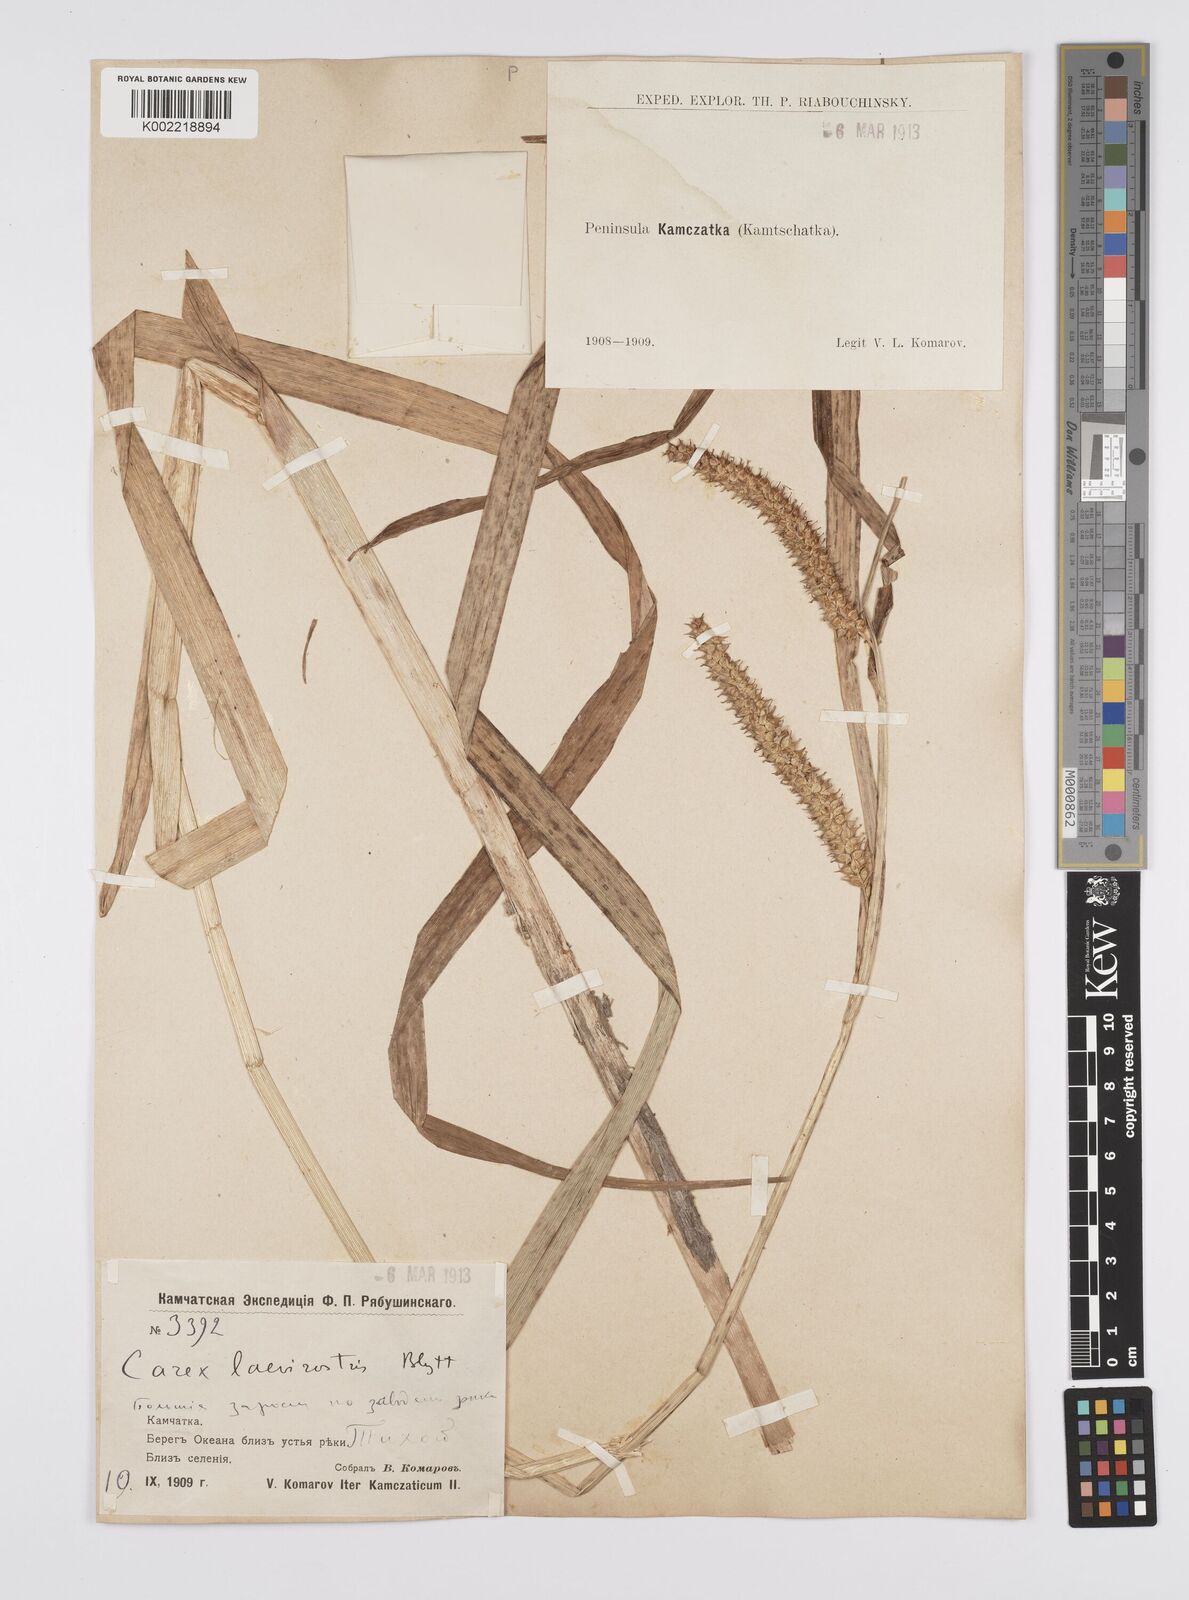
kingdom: Plantae
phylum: Tracheophyta
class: Liliopsida
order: Poales
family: Cyperaceae
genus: Carex
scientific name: Carex utriculata
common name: Beaked sedge
